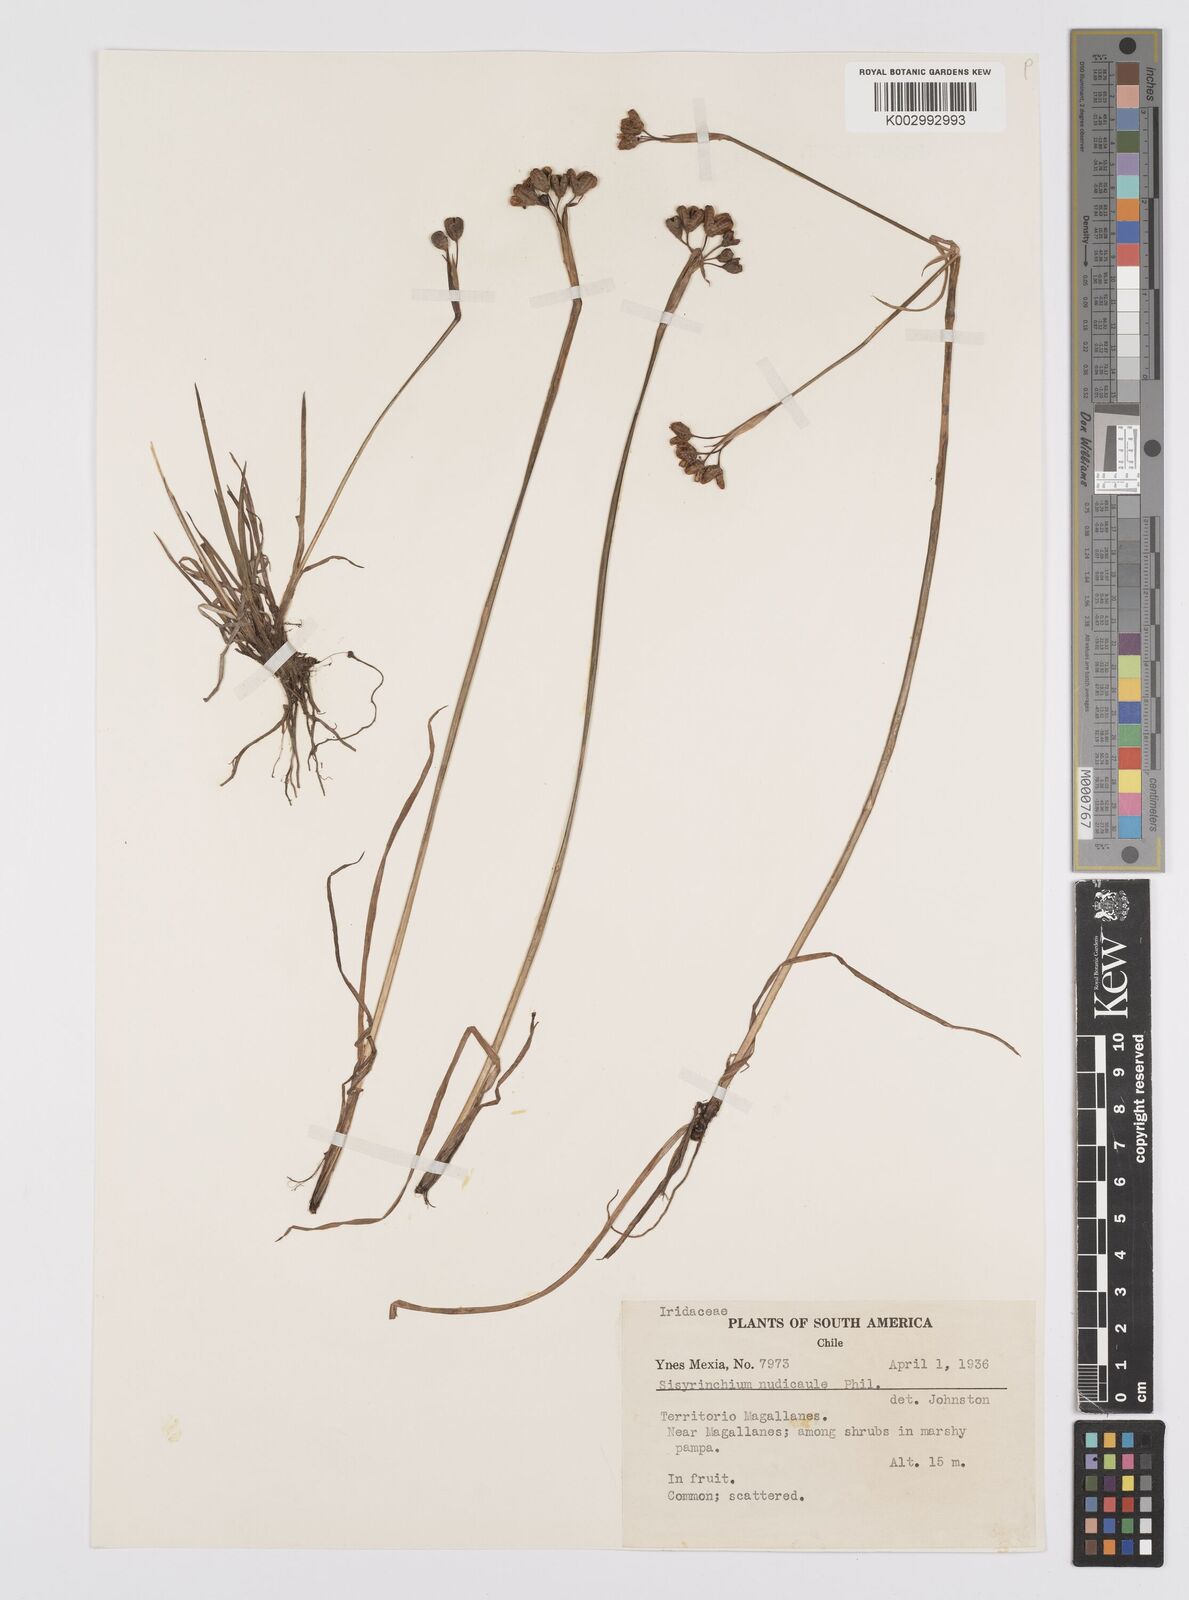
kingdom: Plantae
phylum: Tracheophyta
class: Liliopsida
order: Asparagales
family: Iridaceae
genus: Sisyrinchium
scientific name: Sisyrinchium patagonicum
